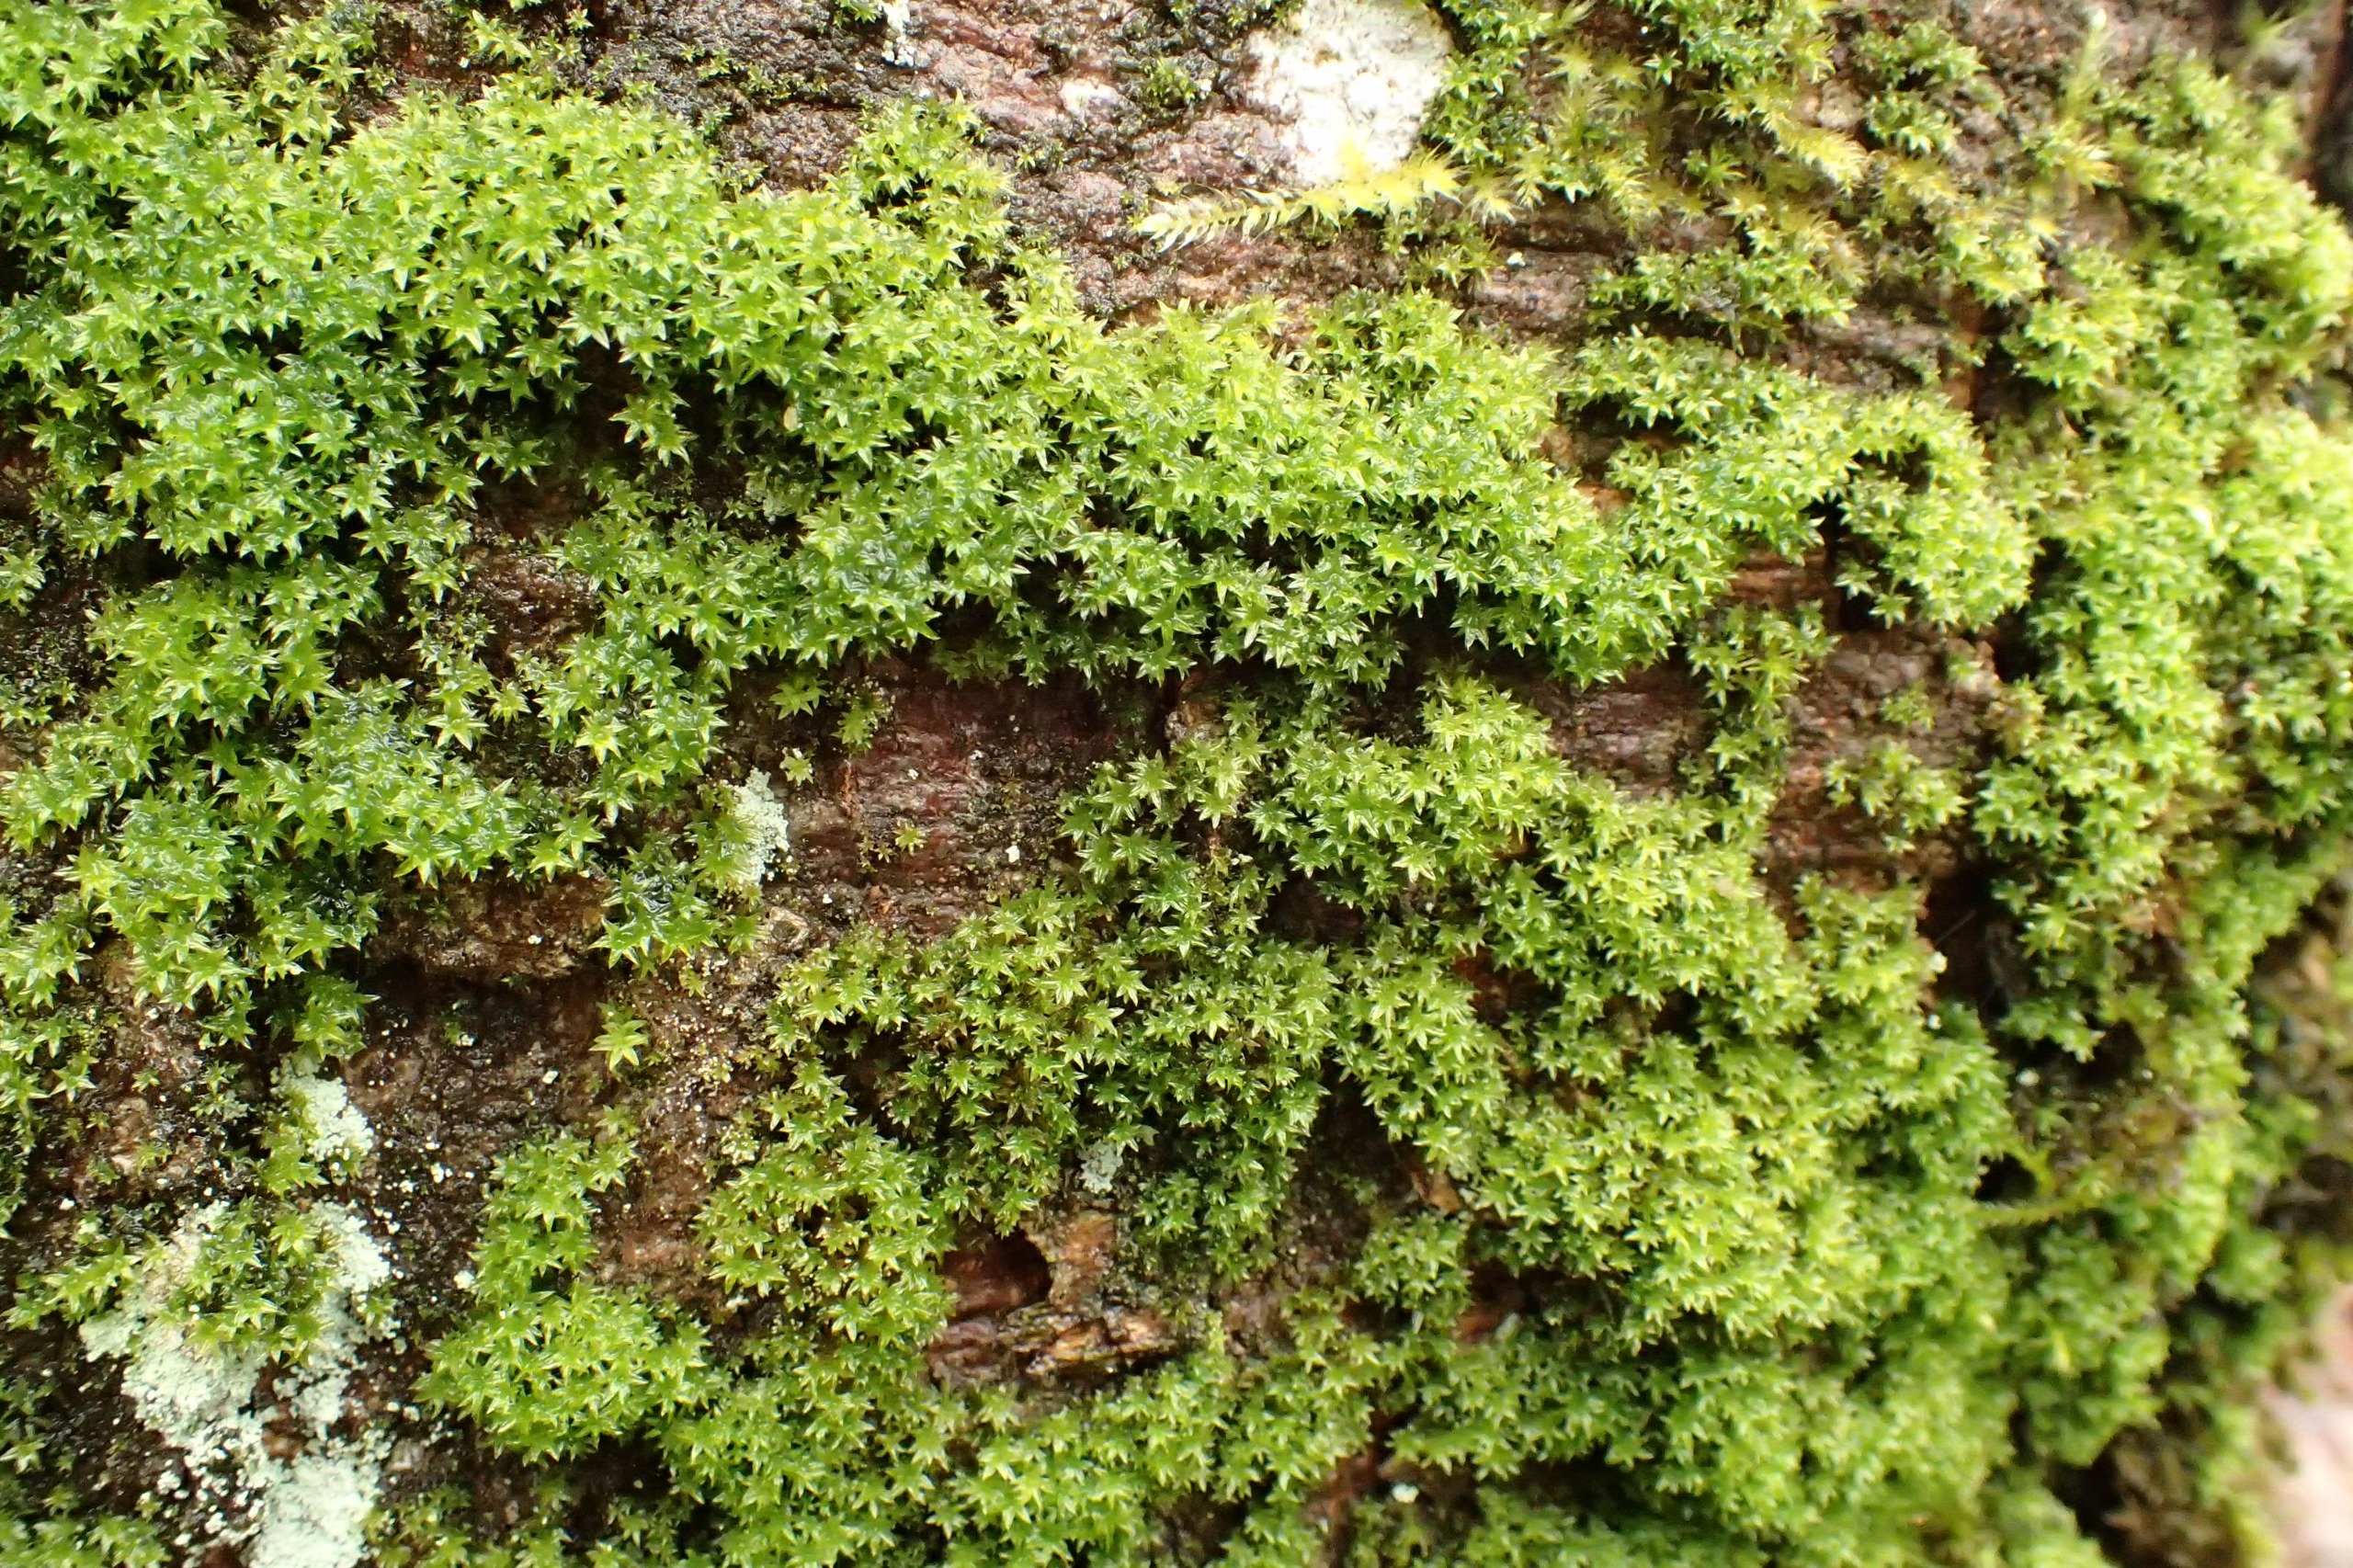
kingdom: Plantae
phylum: Bryophyta
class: Bryopsida
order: Orthotrichales
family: Orthotrichaceae
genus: Zygodon
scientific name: Zygodon conoideus
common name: Tand-køllemos
